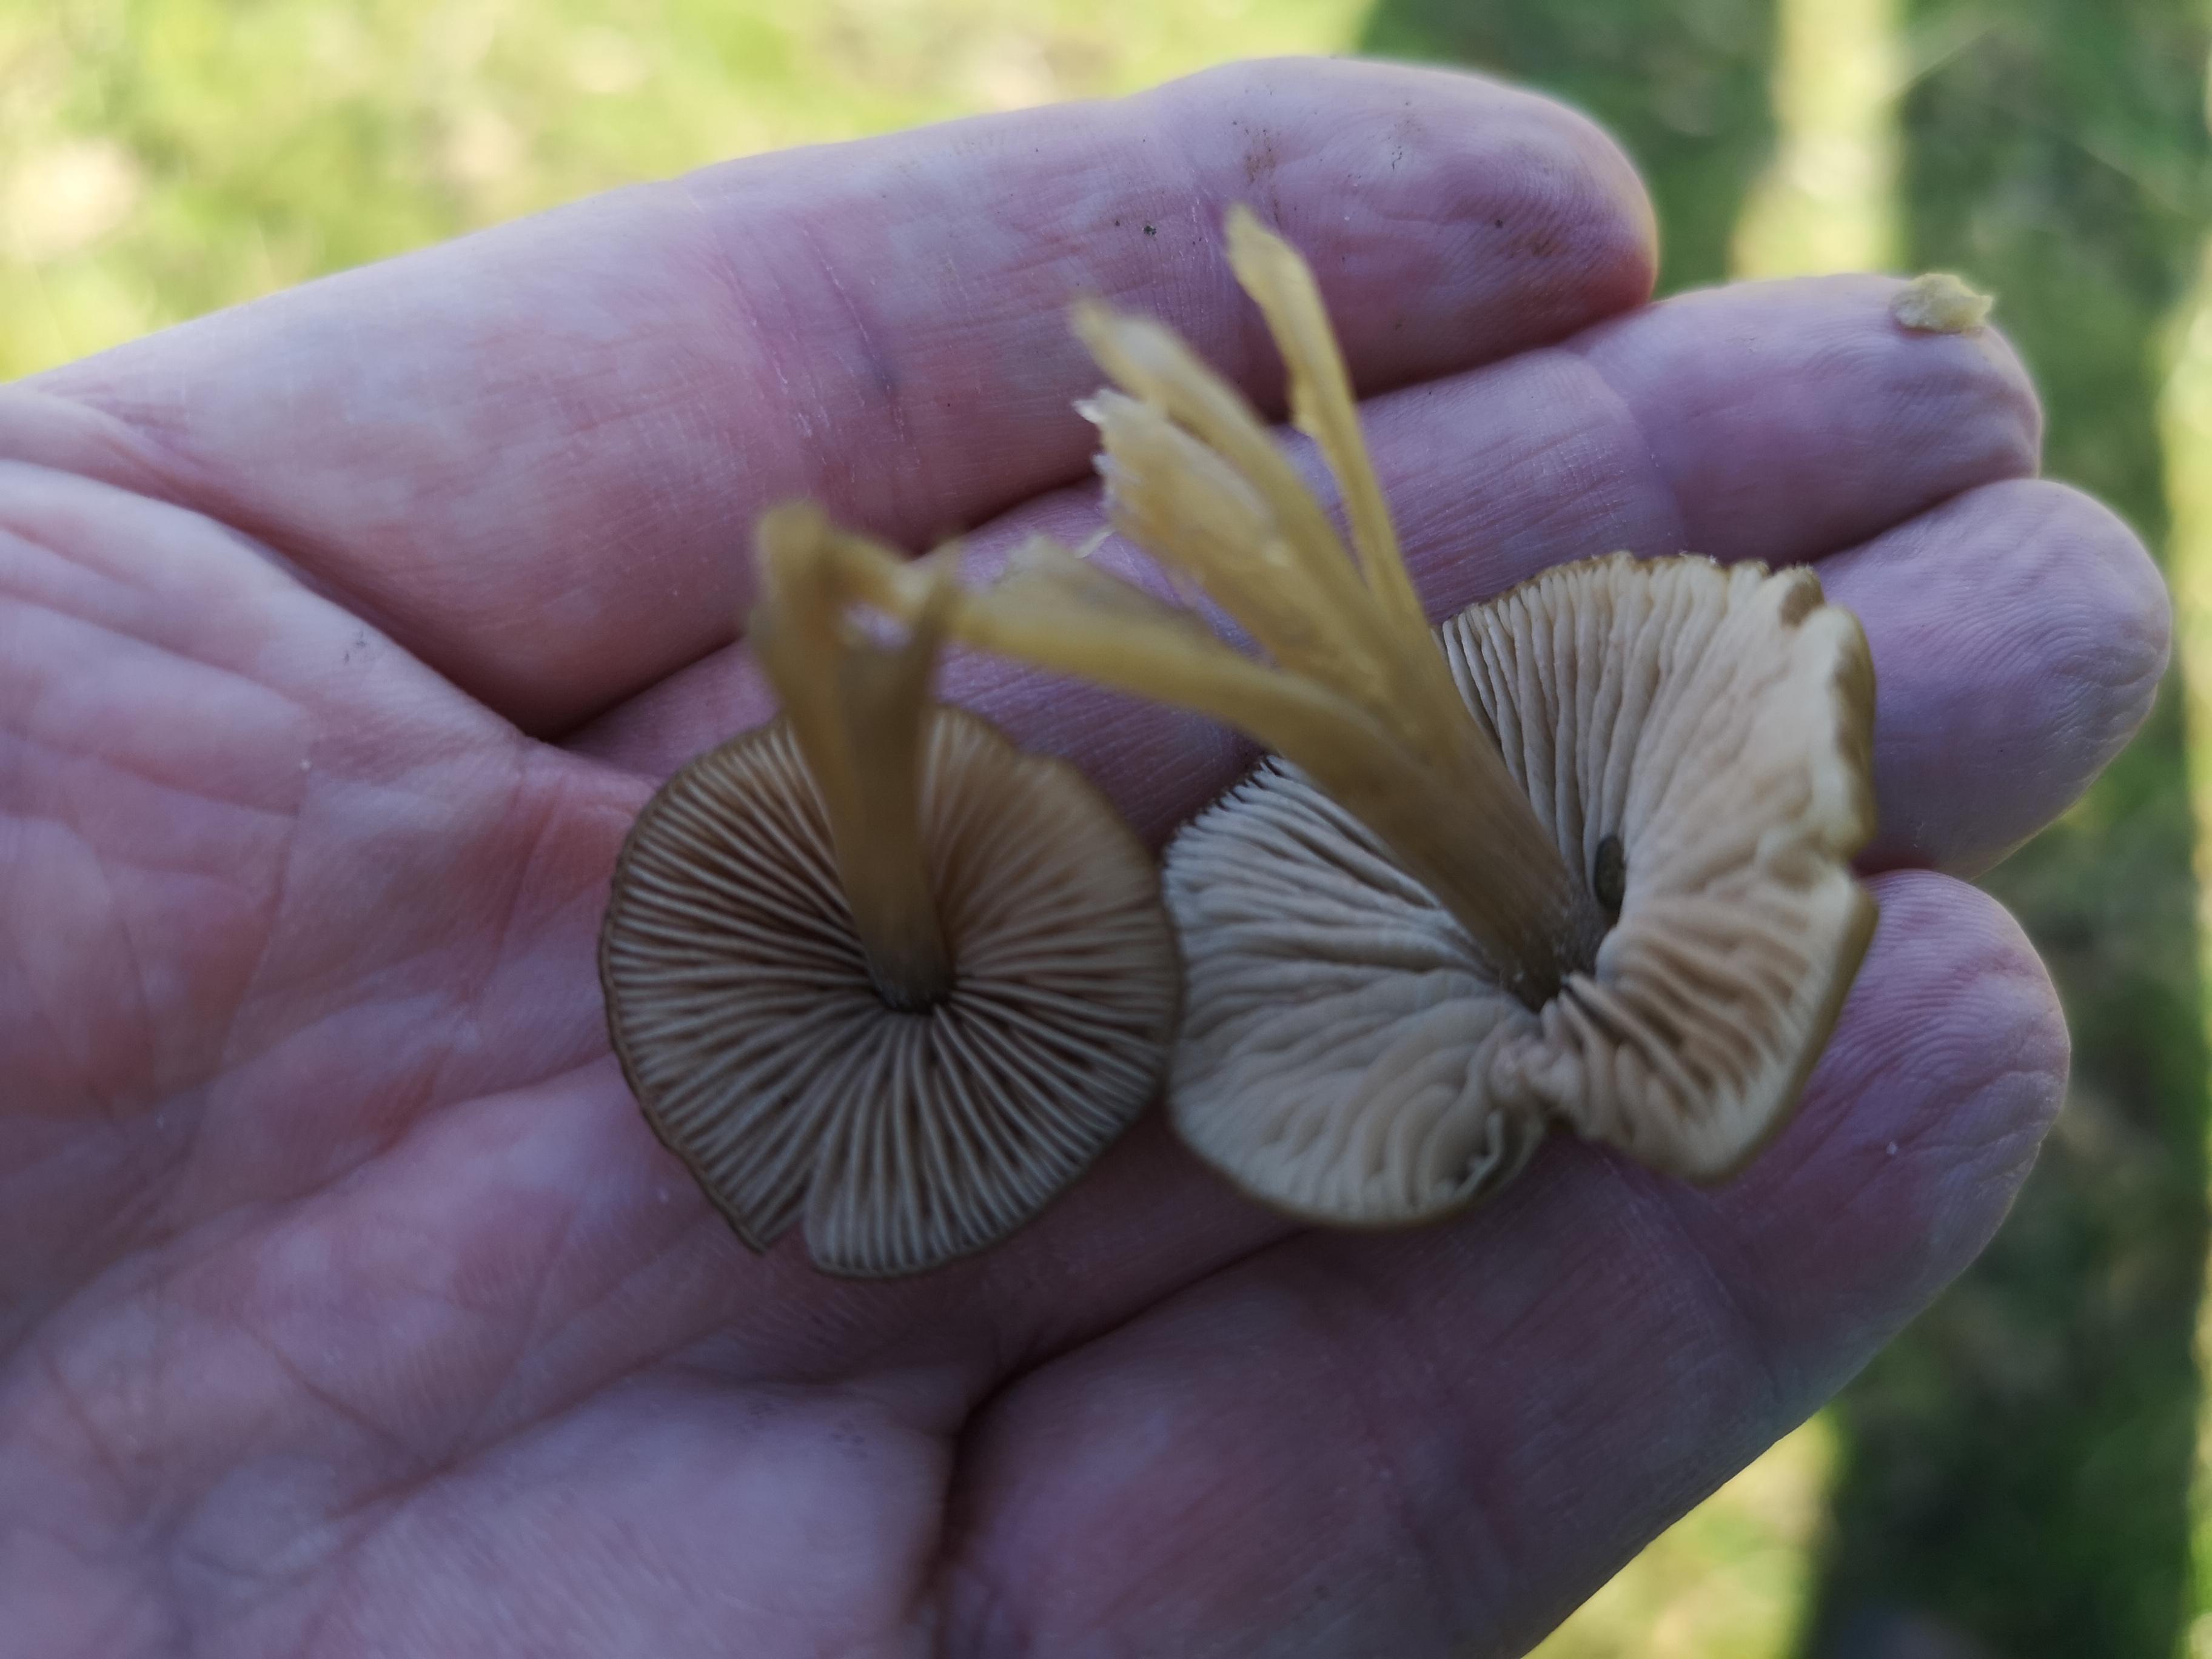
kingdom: Fungi
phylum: Basidiomycota
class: Agaricomycetes
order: Agaricales
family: Entolomataceae
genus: Entoloma
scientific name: Entoloma
